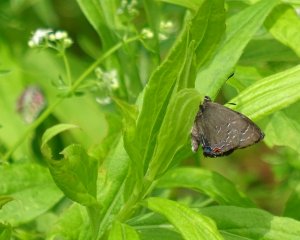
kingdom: Animalia
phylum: Arthropoda
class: Insecta
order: Lepidoptera
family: Lycaenidae
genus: Satyrium
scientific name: Satyrium calanus
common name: Banded Hairstreak
